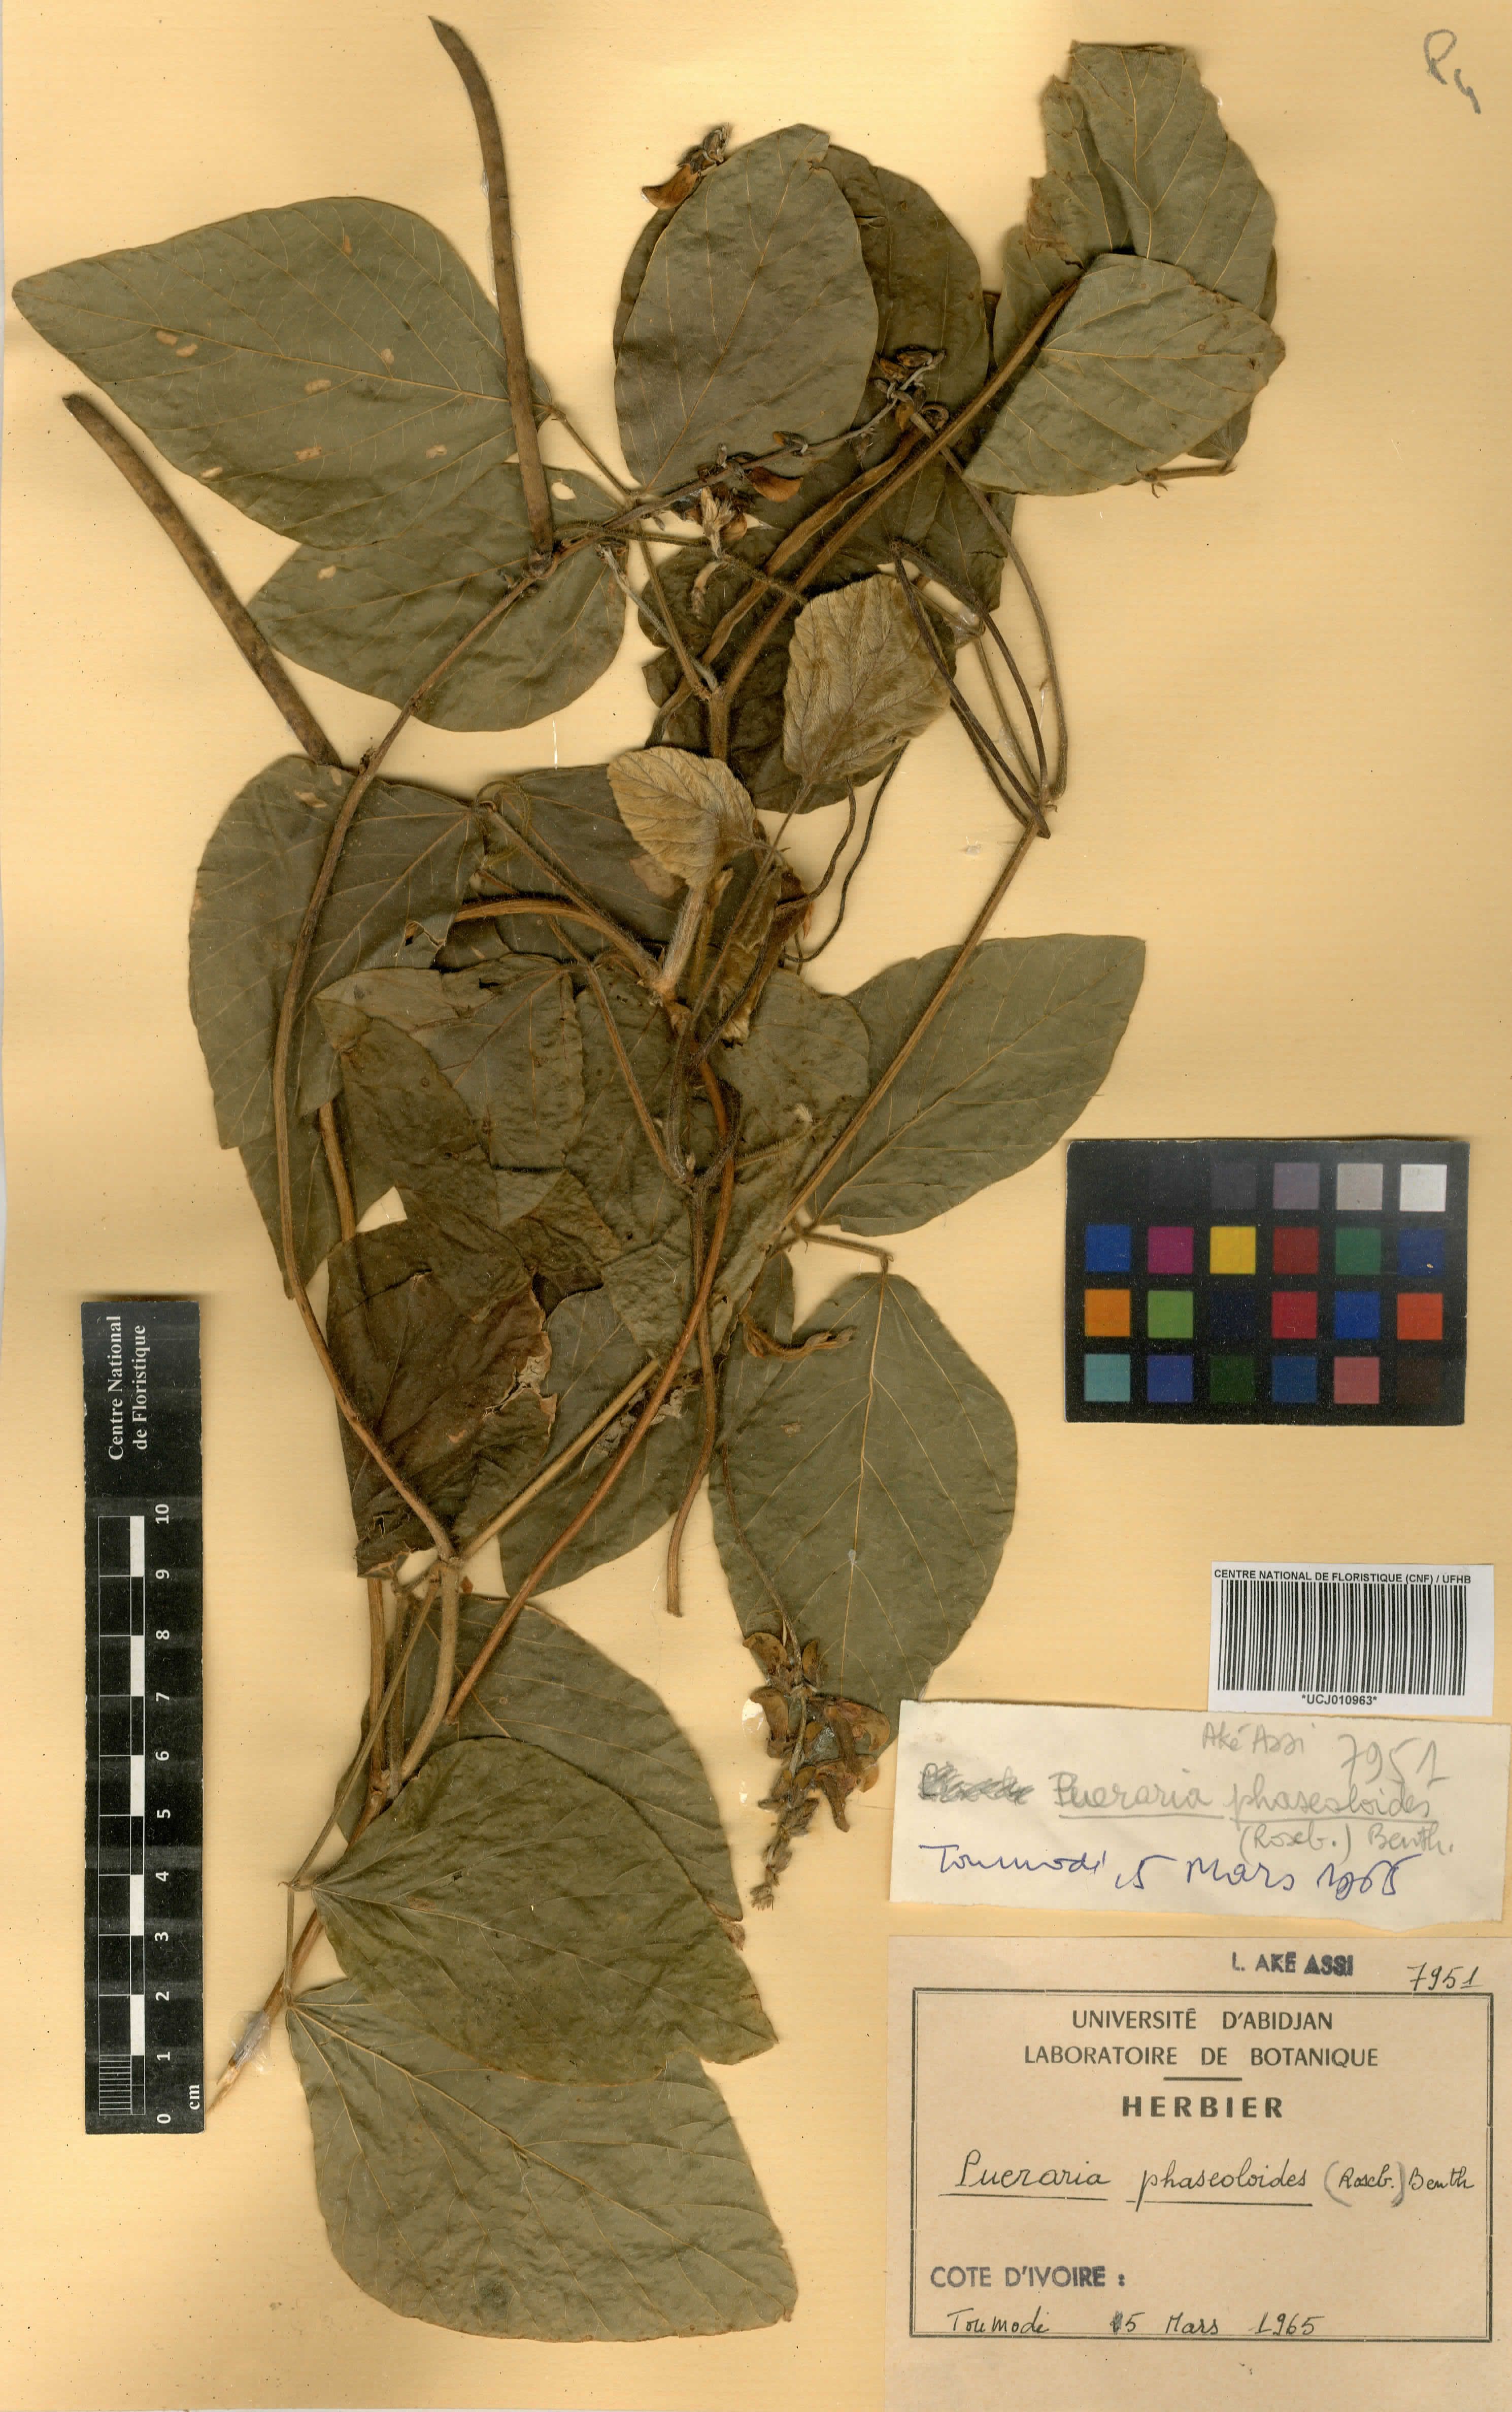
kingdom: Plantae
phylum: Tracheophyta
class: Magnoliopsida
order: Fabales
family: Fabaceae
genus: Neustanthus
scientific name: Neustanthus phaseoloides
